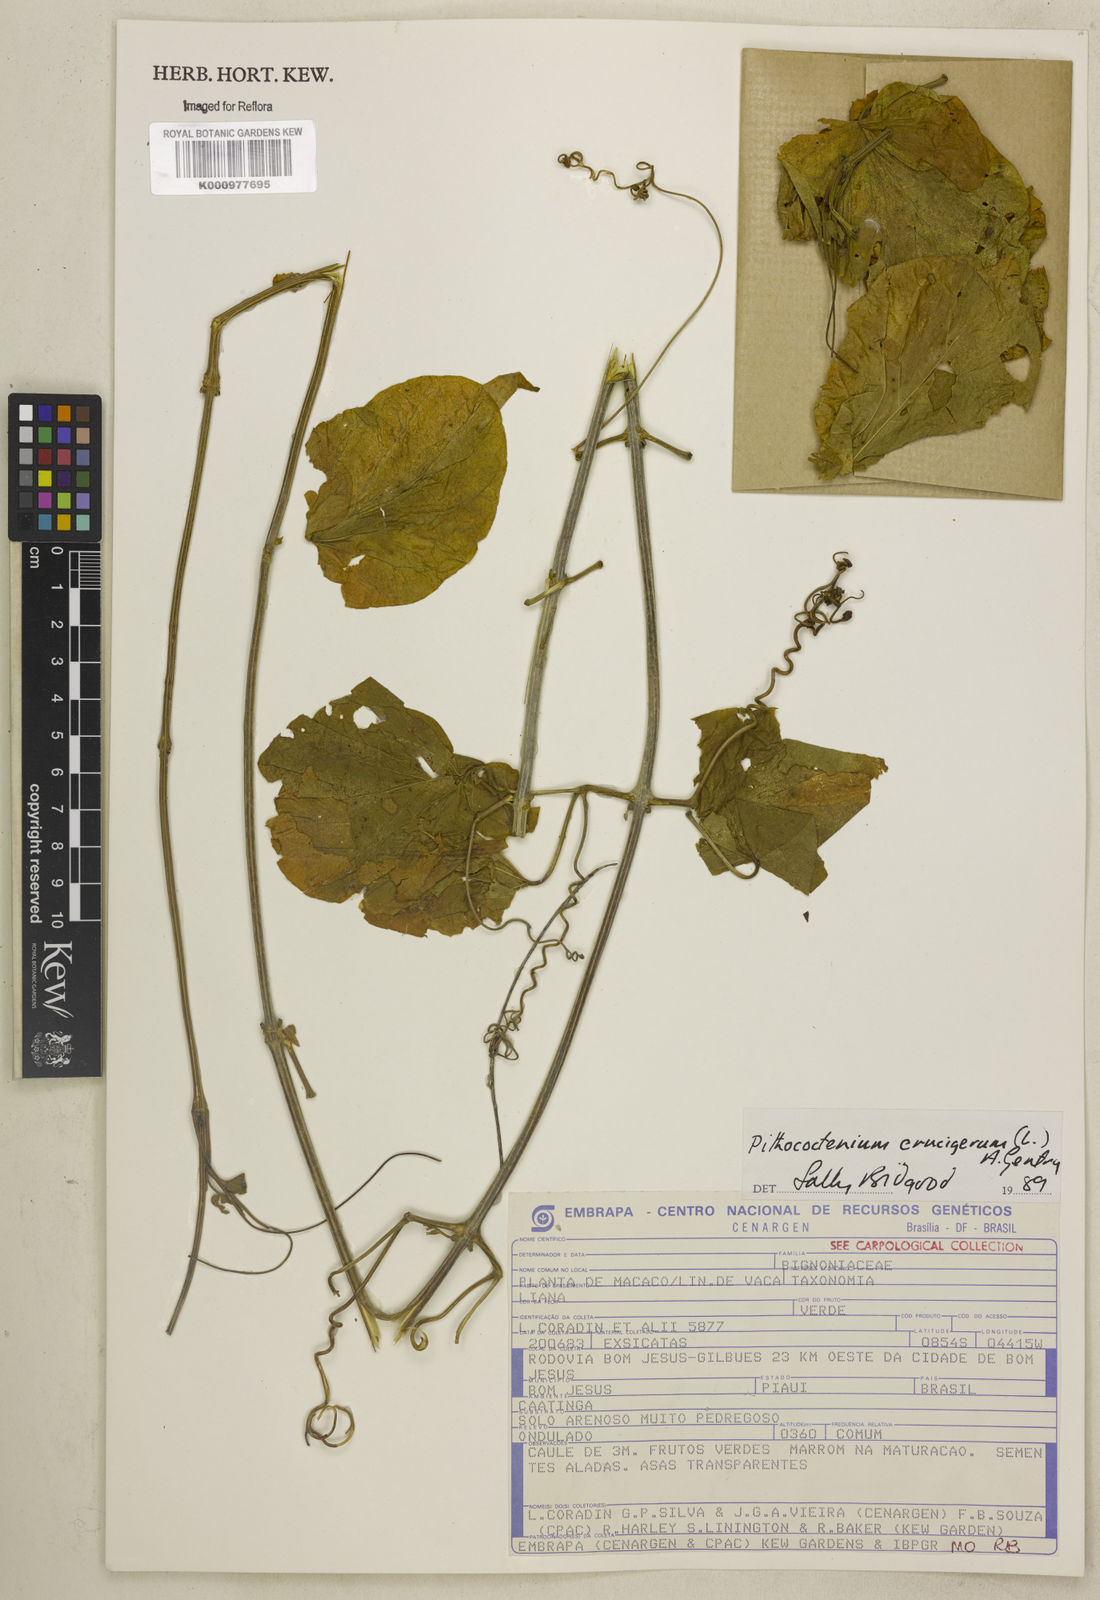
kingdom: Plantae
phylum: Tracheophyta
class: Magnoliopsida
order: Lamiales
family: Bignoniaceae
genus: Amphilophium
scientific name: Amphilophium crucigerum
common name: Monkey comb
